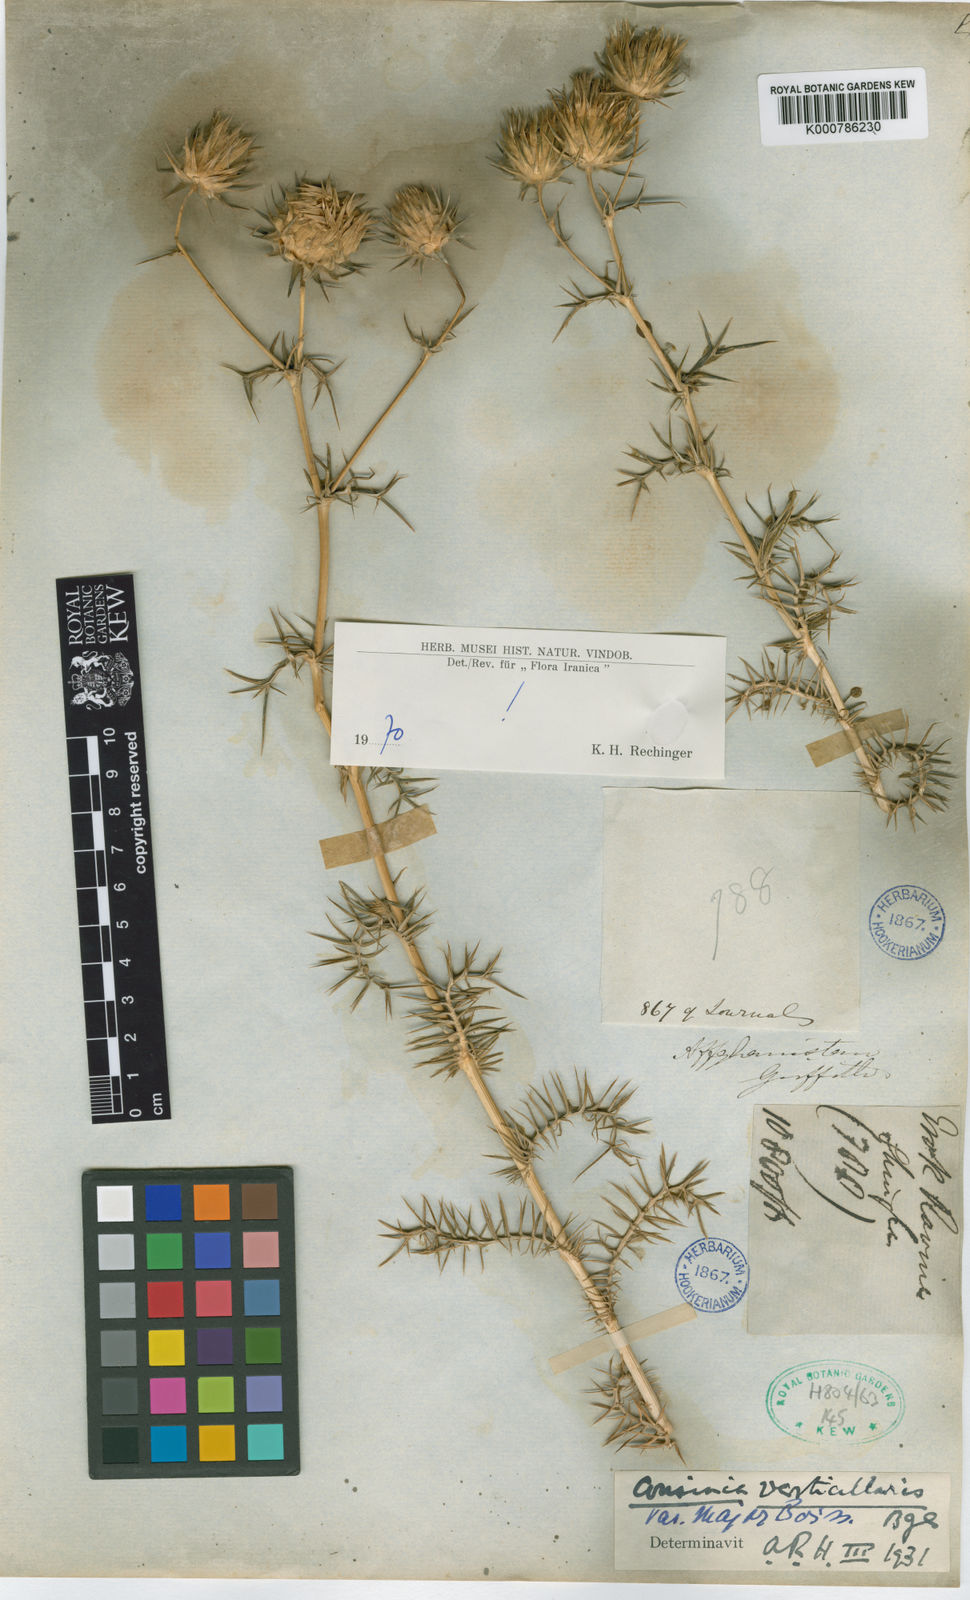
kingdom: Plantae
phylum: Tracheophyta
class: Magnoliopsida
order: Asterales
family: Asteraceae
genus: Cousinia
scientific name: Cousinia verticillaris
